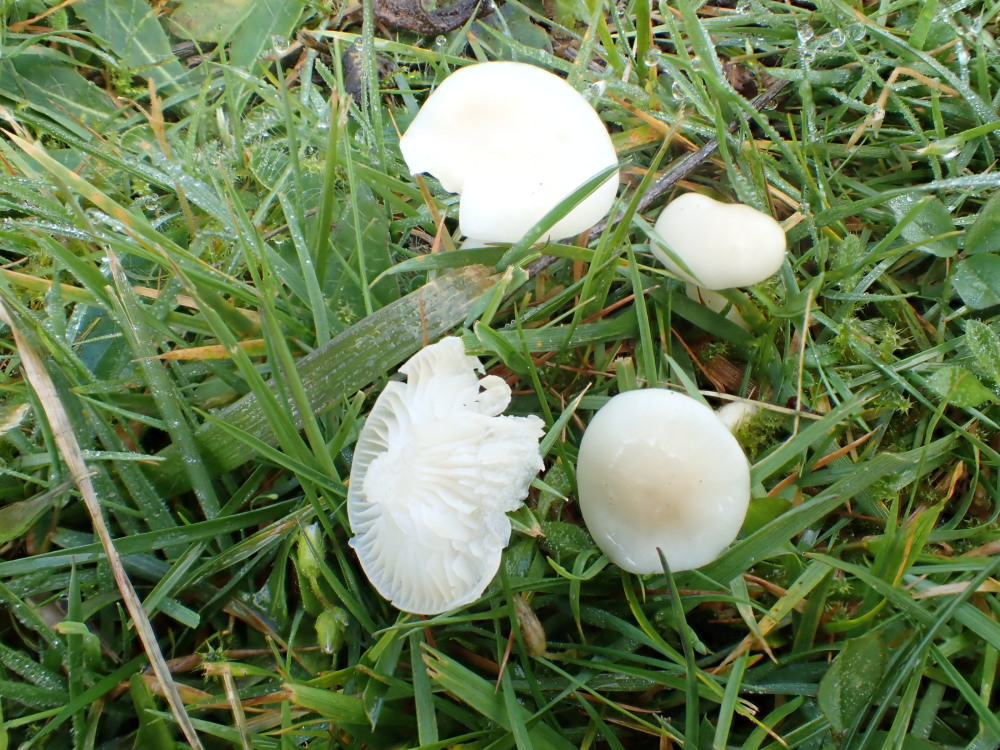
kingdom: Fungi
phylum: Basidiomycota
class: Agaricomycetes
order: Agaricales
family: Hygrophoraceae
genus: Cuphophyllus
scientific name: Cuphophyllus virgineus
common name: snehvid vokshat
